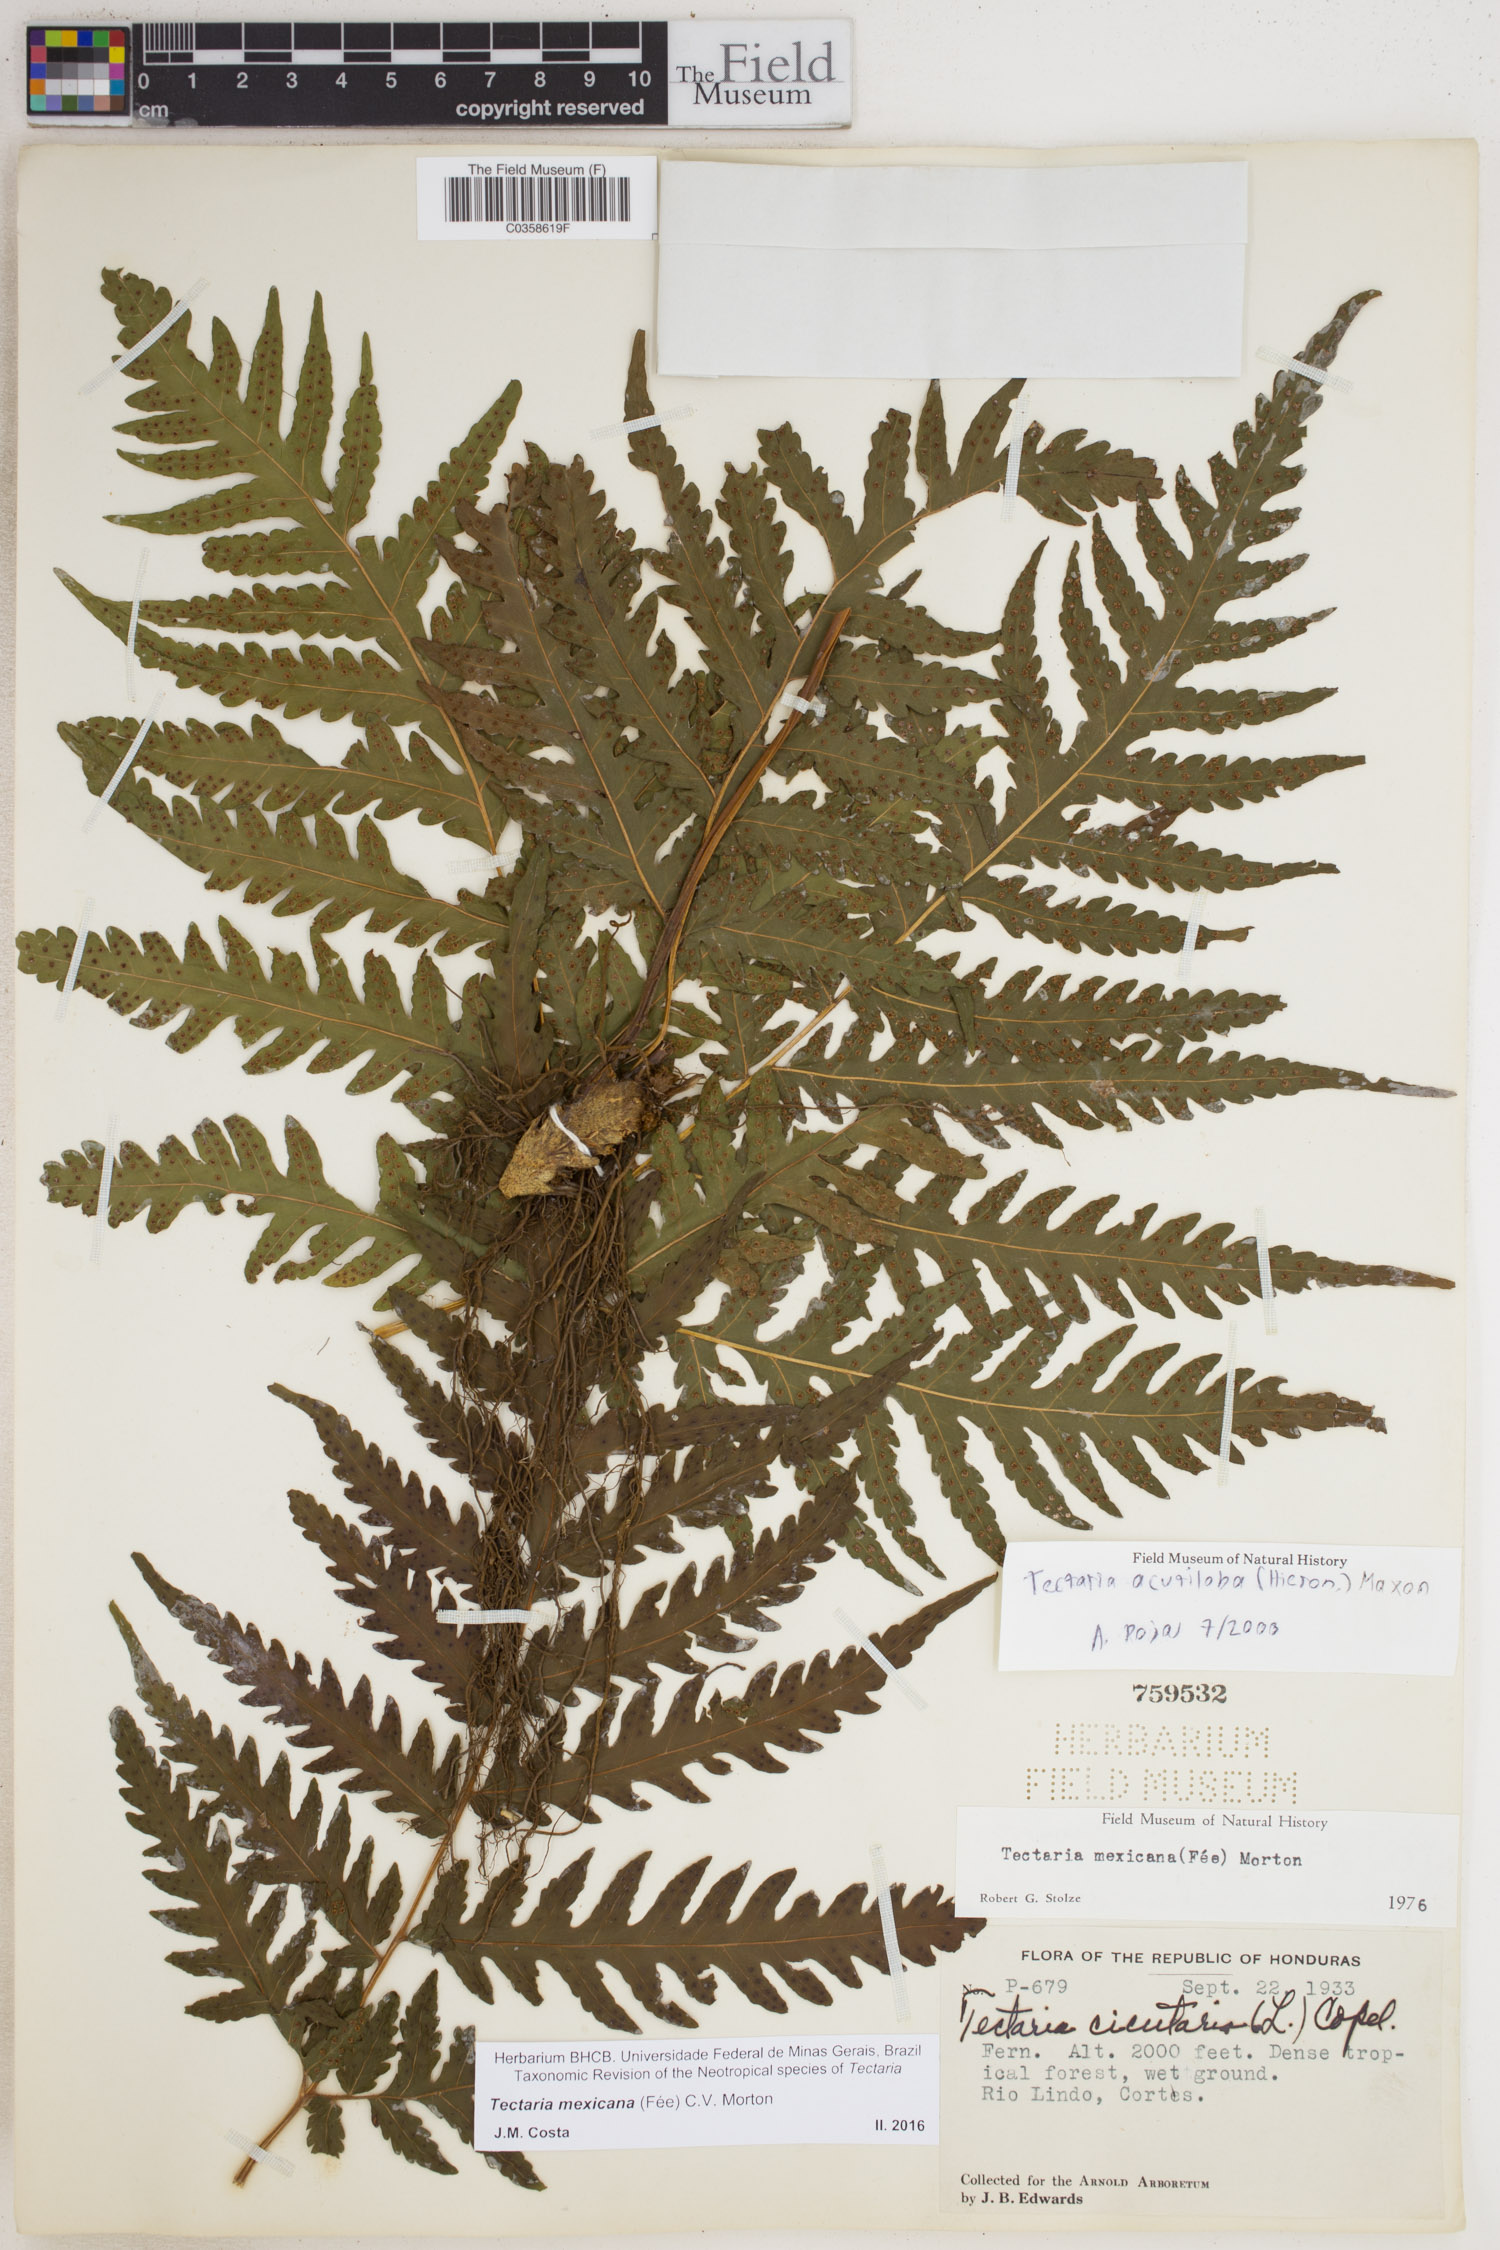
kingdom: Plantae
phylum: Tracheophyta
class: Polypodiopsida
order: Polypodiales
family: Tectariaceae
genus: Tectaria
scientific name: Tectaria mexicana
